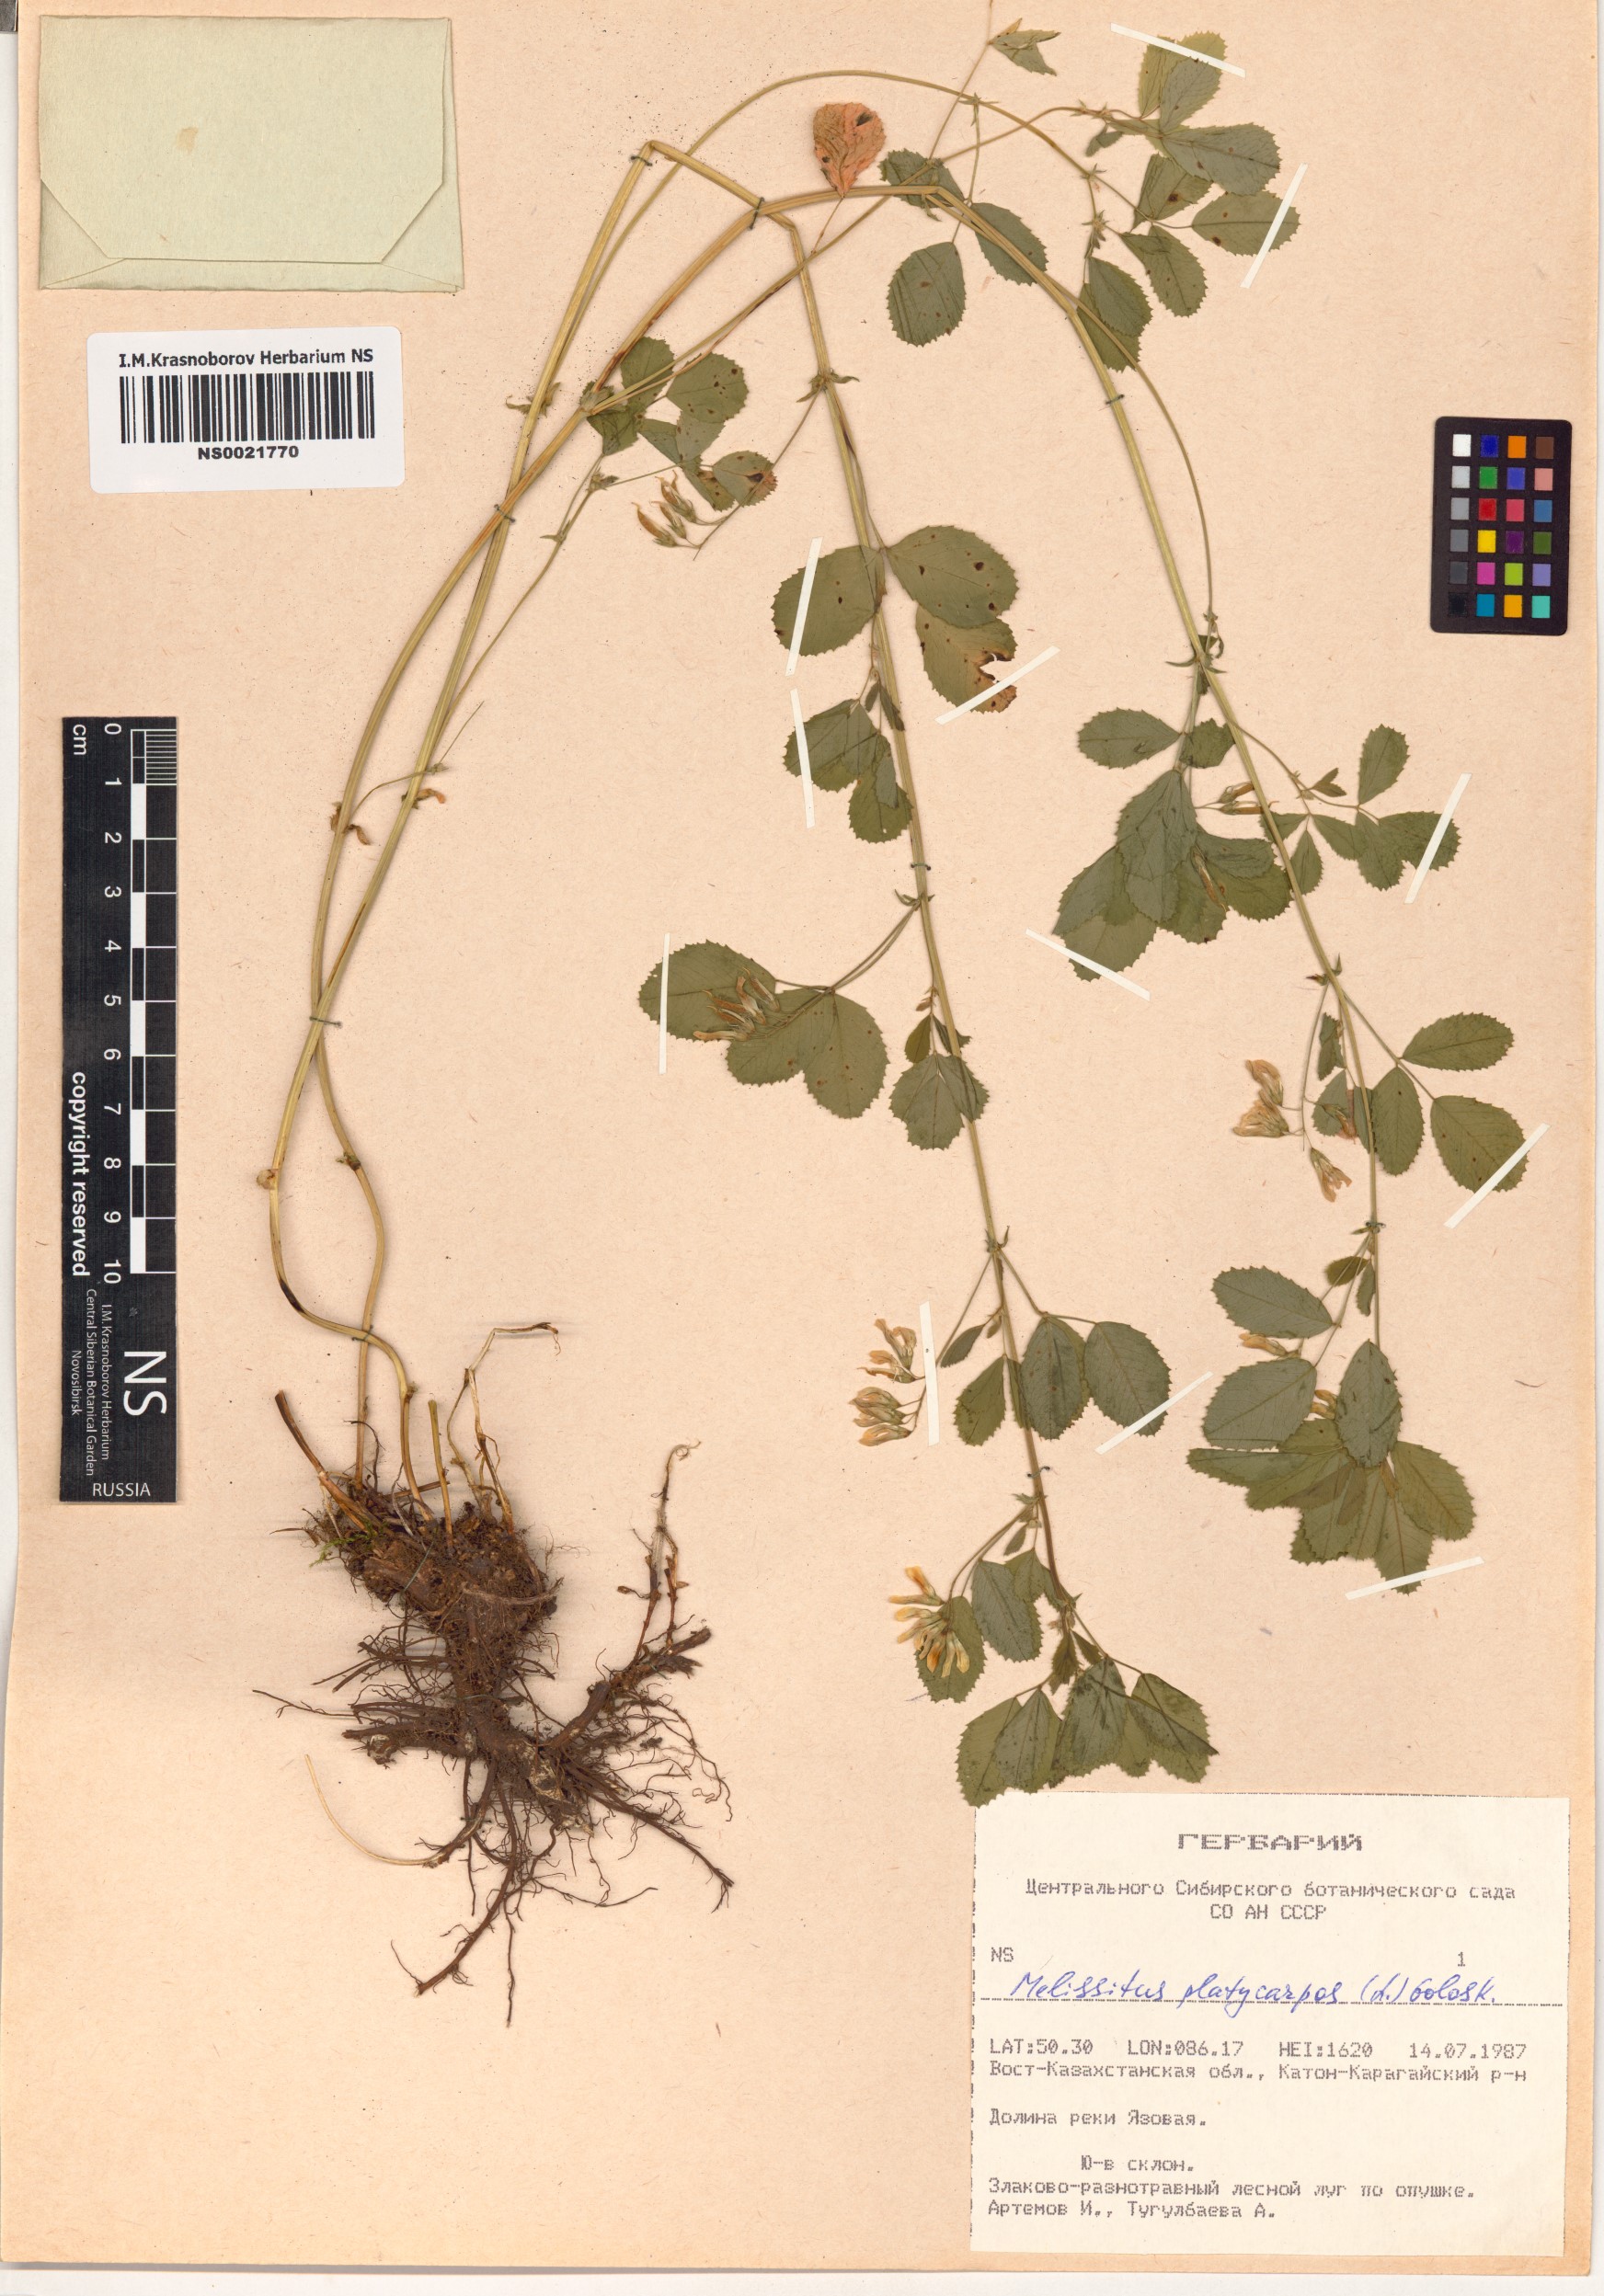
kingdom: Plantae
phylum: Tracheophyta
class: Magnoliopsida
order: Fabales
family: Fabaceae
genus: Medicago
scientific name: Medicago platycarpos
